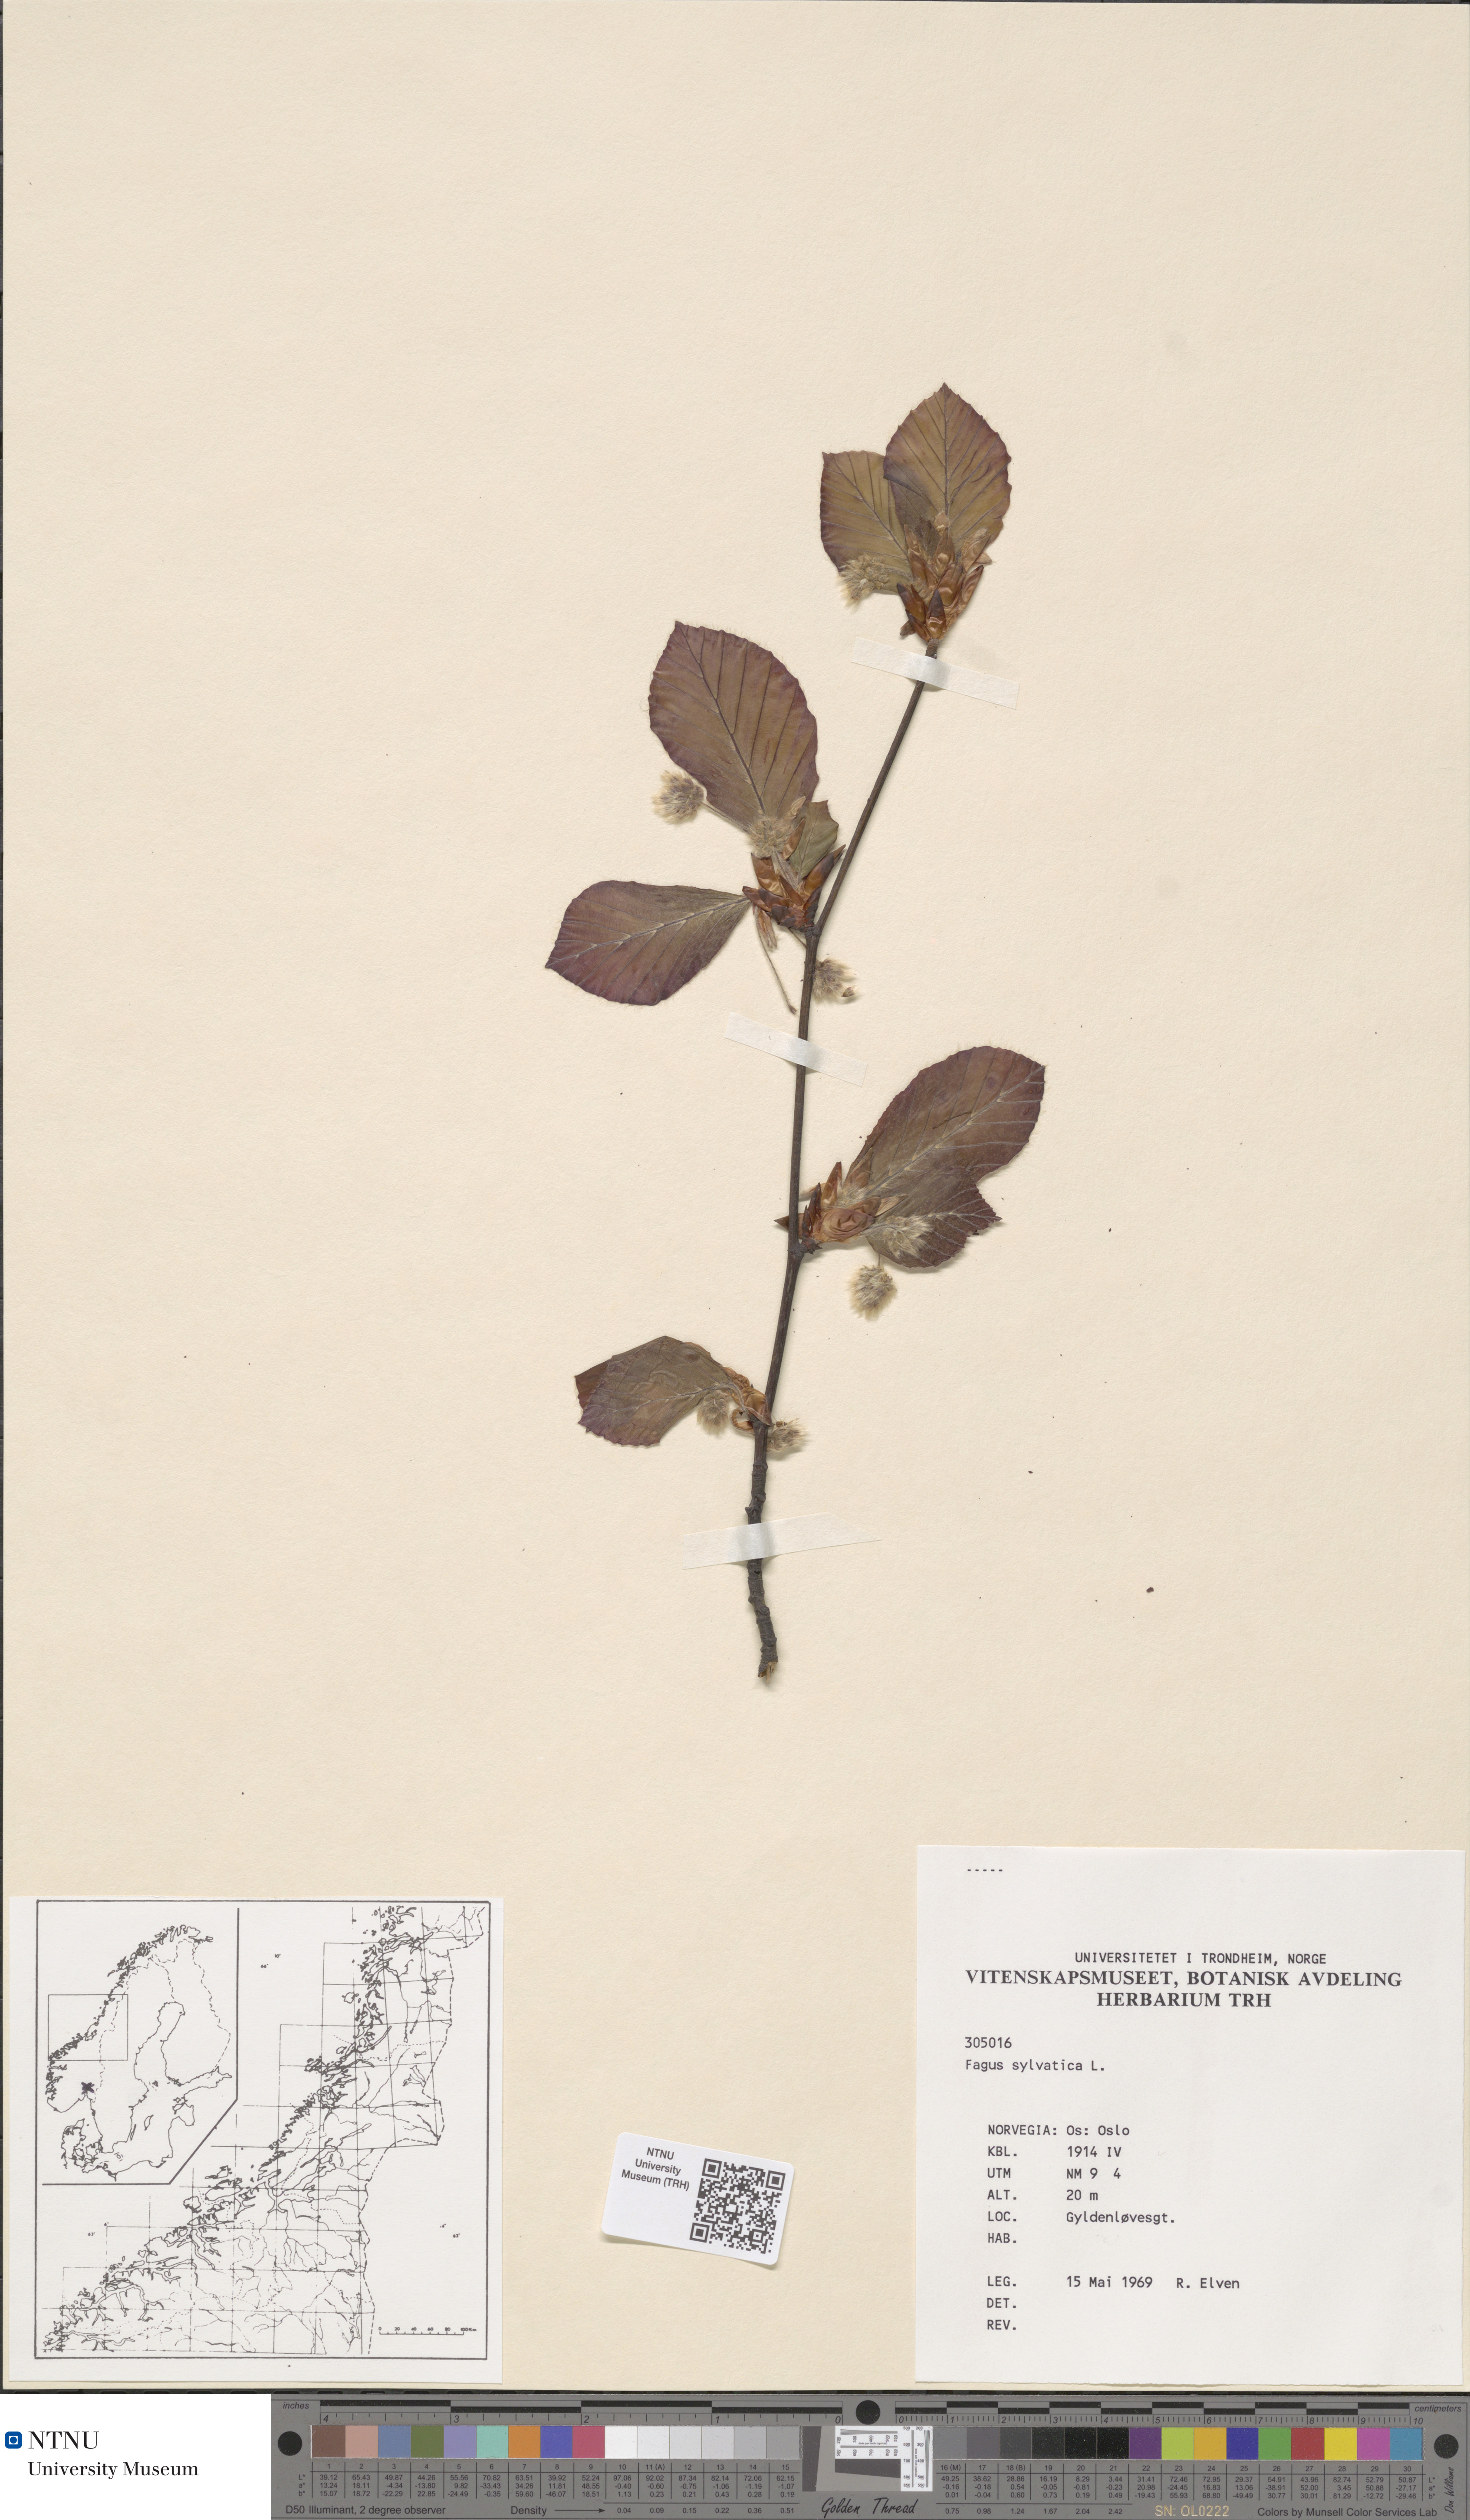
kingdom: Plantae
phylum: Tracheophyta
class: Magnoliopsida
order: Fagales
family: Fagaceae
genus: Fagus
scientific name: Fagus sylvatica
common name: Beech
